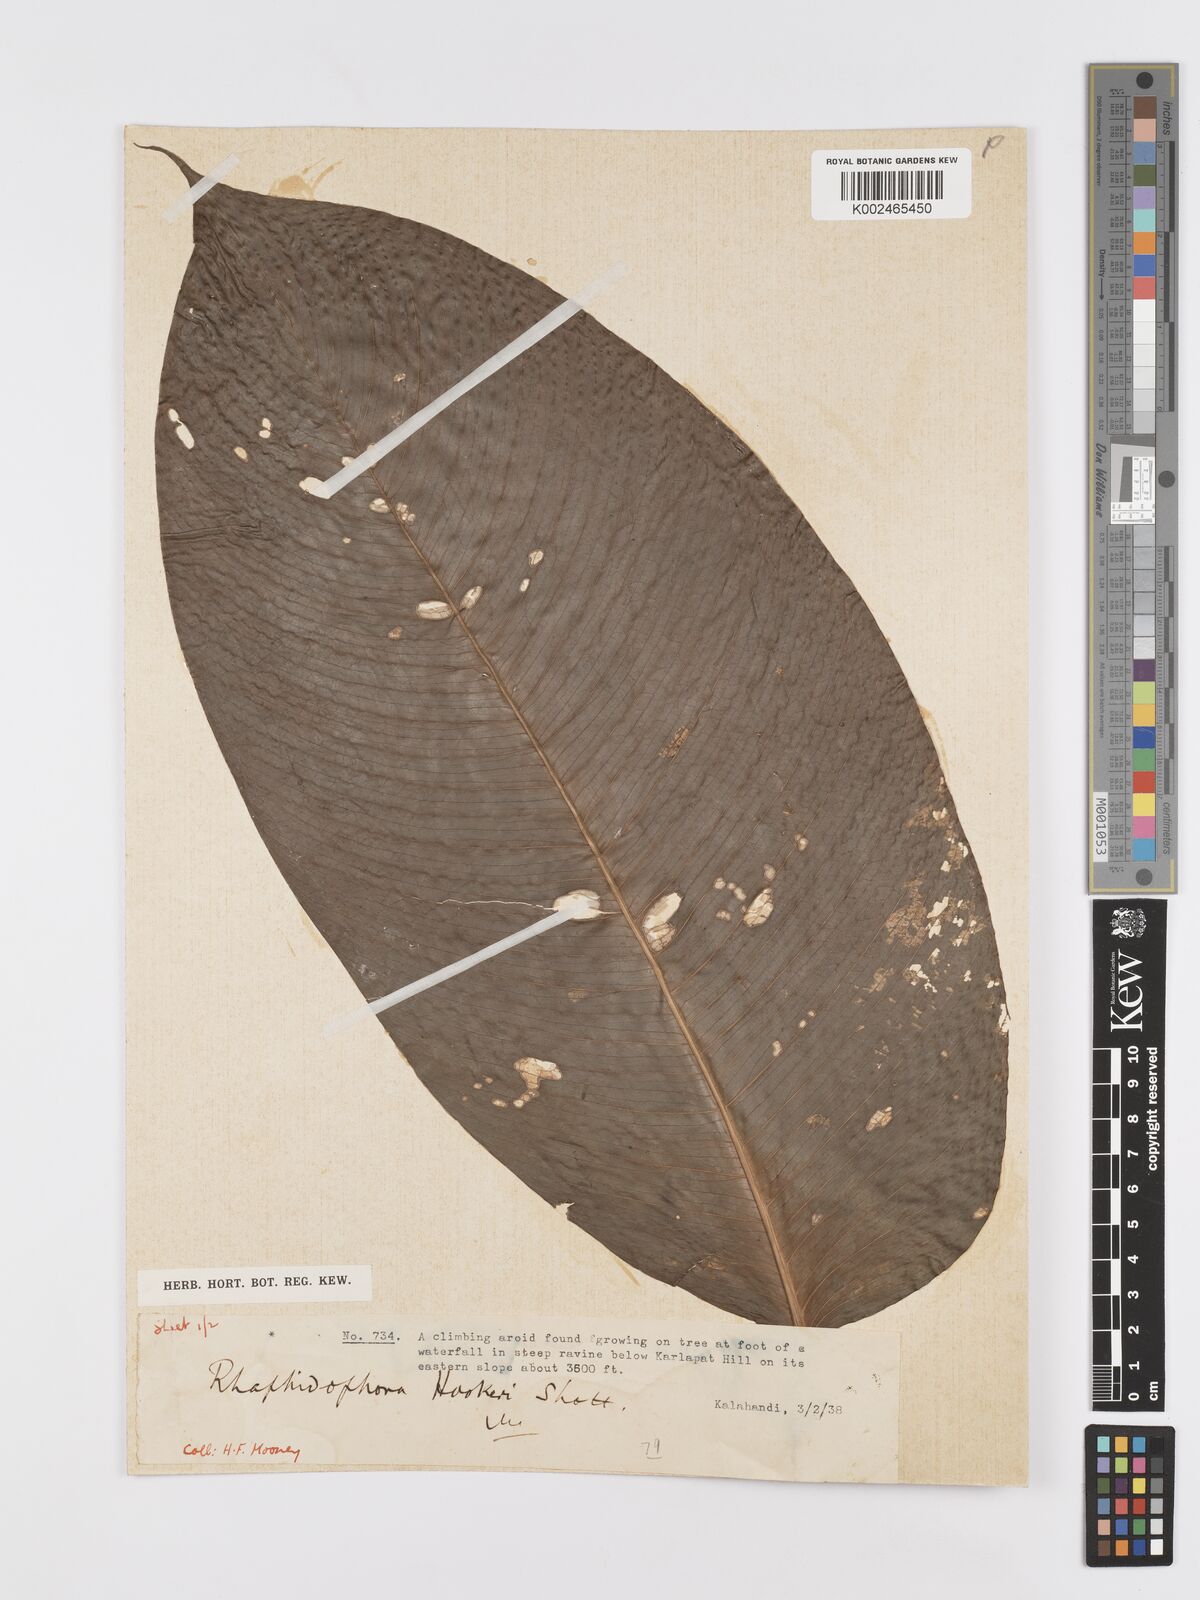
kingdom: Plantae
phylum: Tracheophyta
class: Liliopsida
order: Alismatales
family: Araceae
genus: Rhaphidophora
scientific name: Rhaphidophora hookeri
